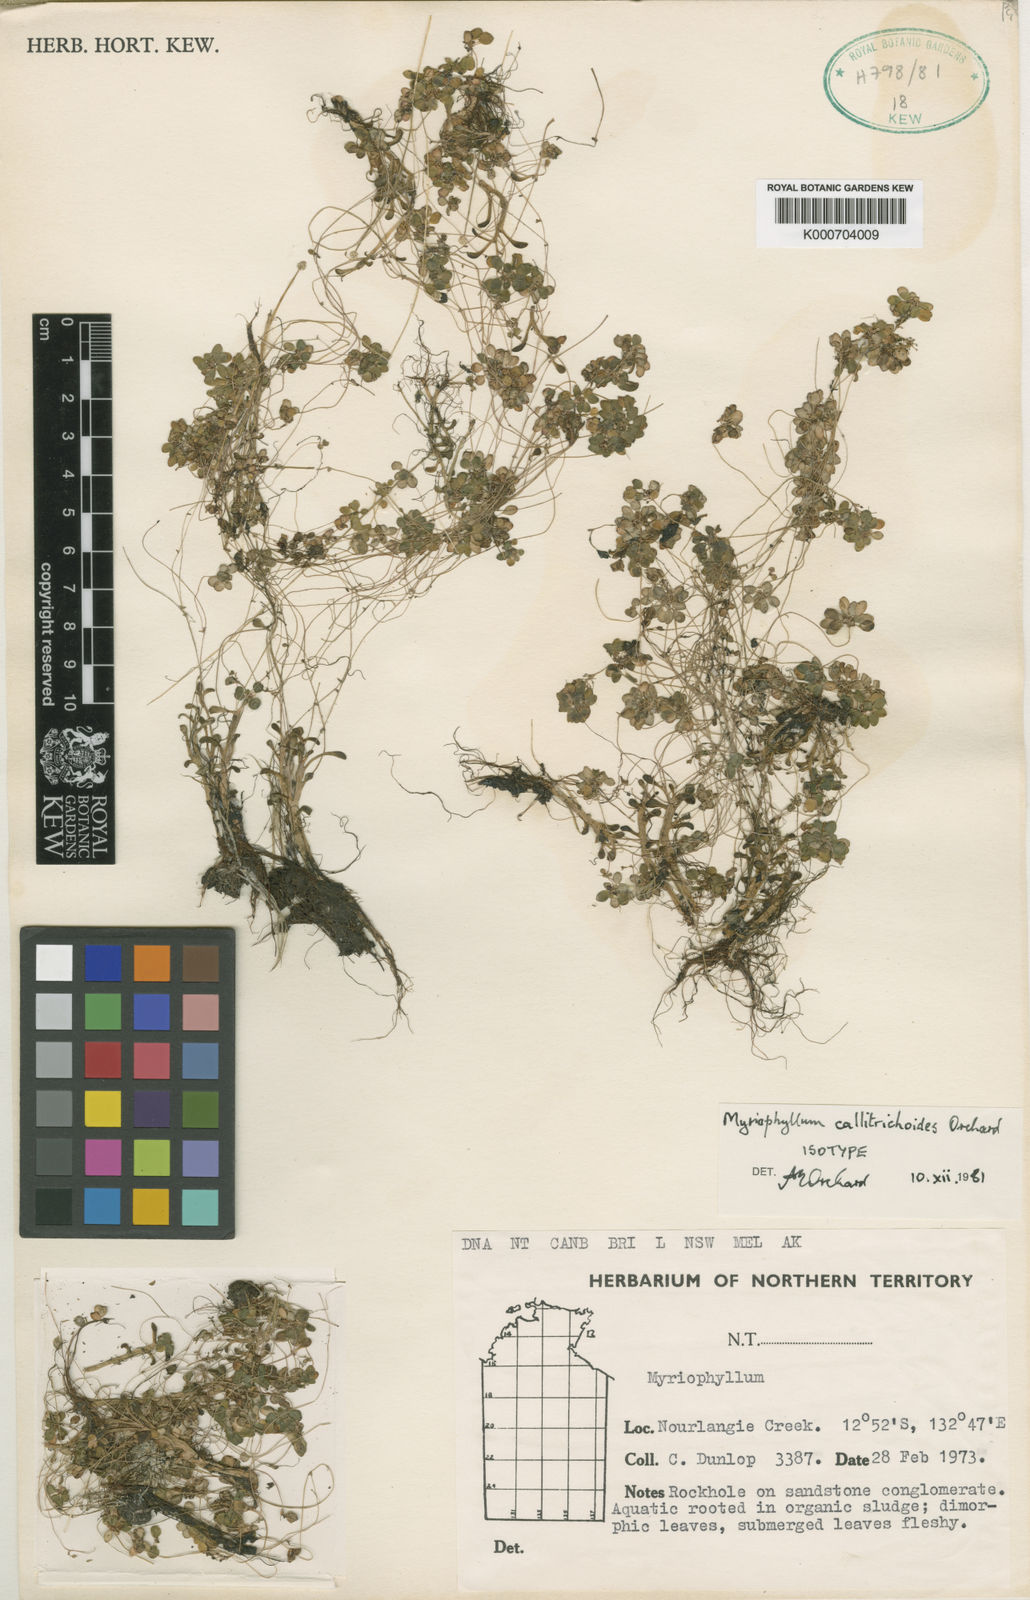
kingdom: Plantae
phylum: Tracheophyta
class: Magnoliopsida
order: Saxifragales
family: Haloragaceae
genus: Myriophyllum
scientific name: Myriophyllum callitrichoides
